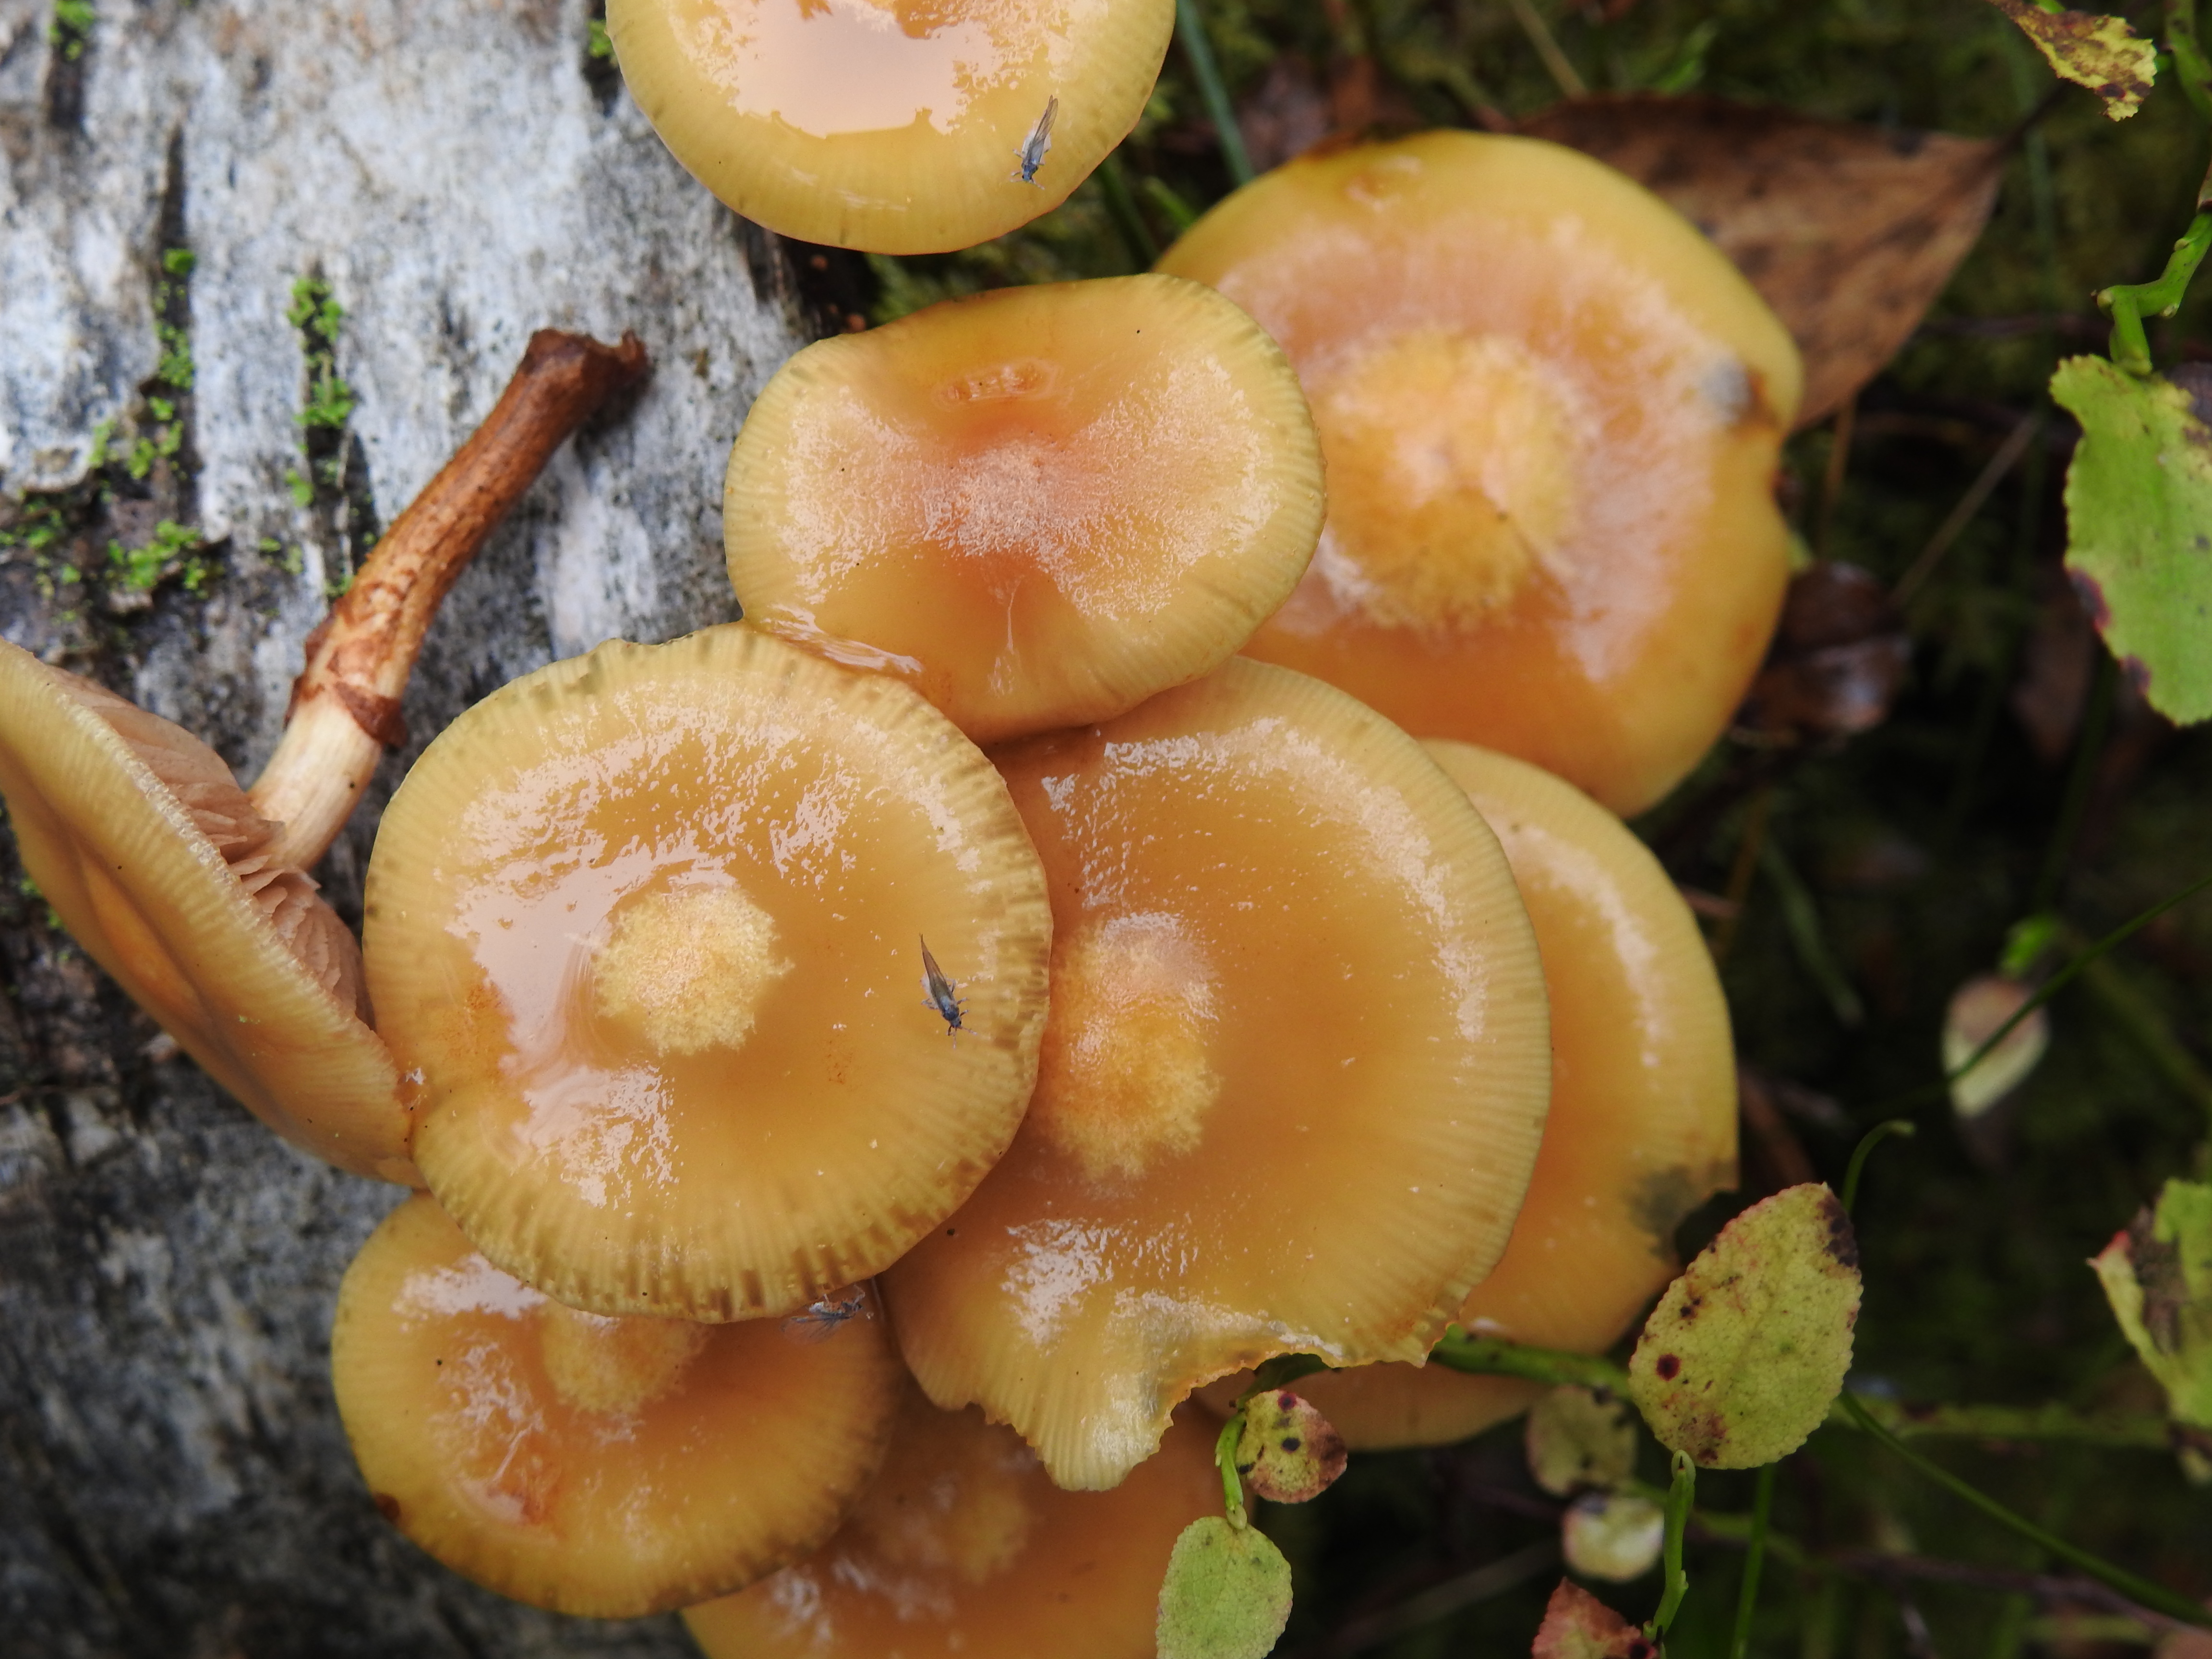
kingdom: Fungi
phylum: Basidiomycota
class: Agaricomycetes
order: Agaricales
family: Strophariaceae
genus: Kuehneromyces
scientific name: Kuehneromyces mutabilis
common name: Sheathed woodtuft
